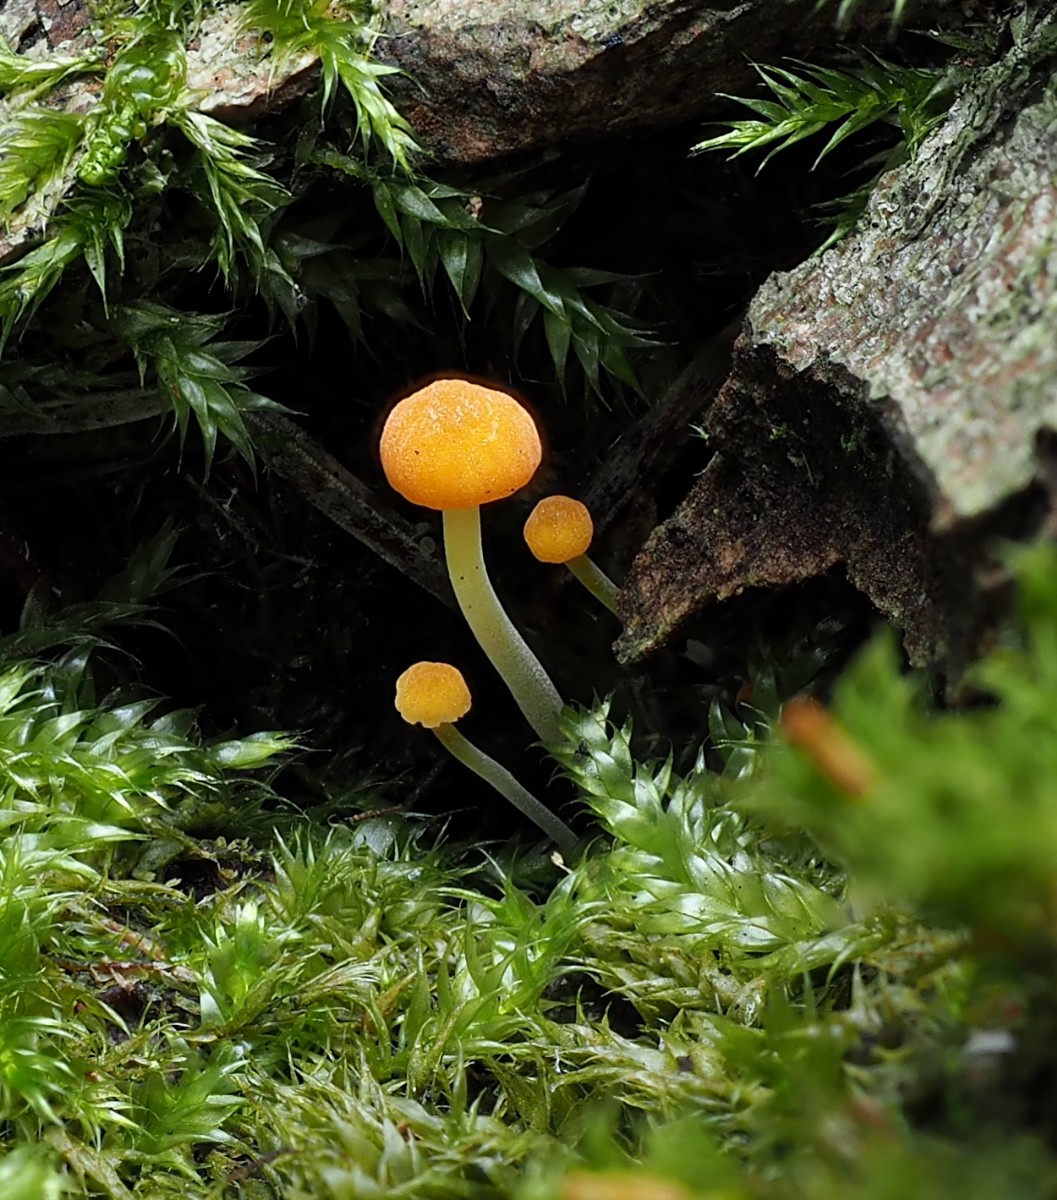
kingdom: Fungi
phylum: Basidiomycota
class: Agaricomycetes
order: Agaricales
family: Mycenaceae
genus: Mycena
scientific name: Mycena acicula
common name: orange huesvamp
